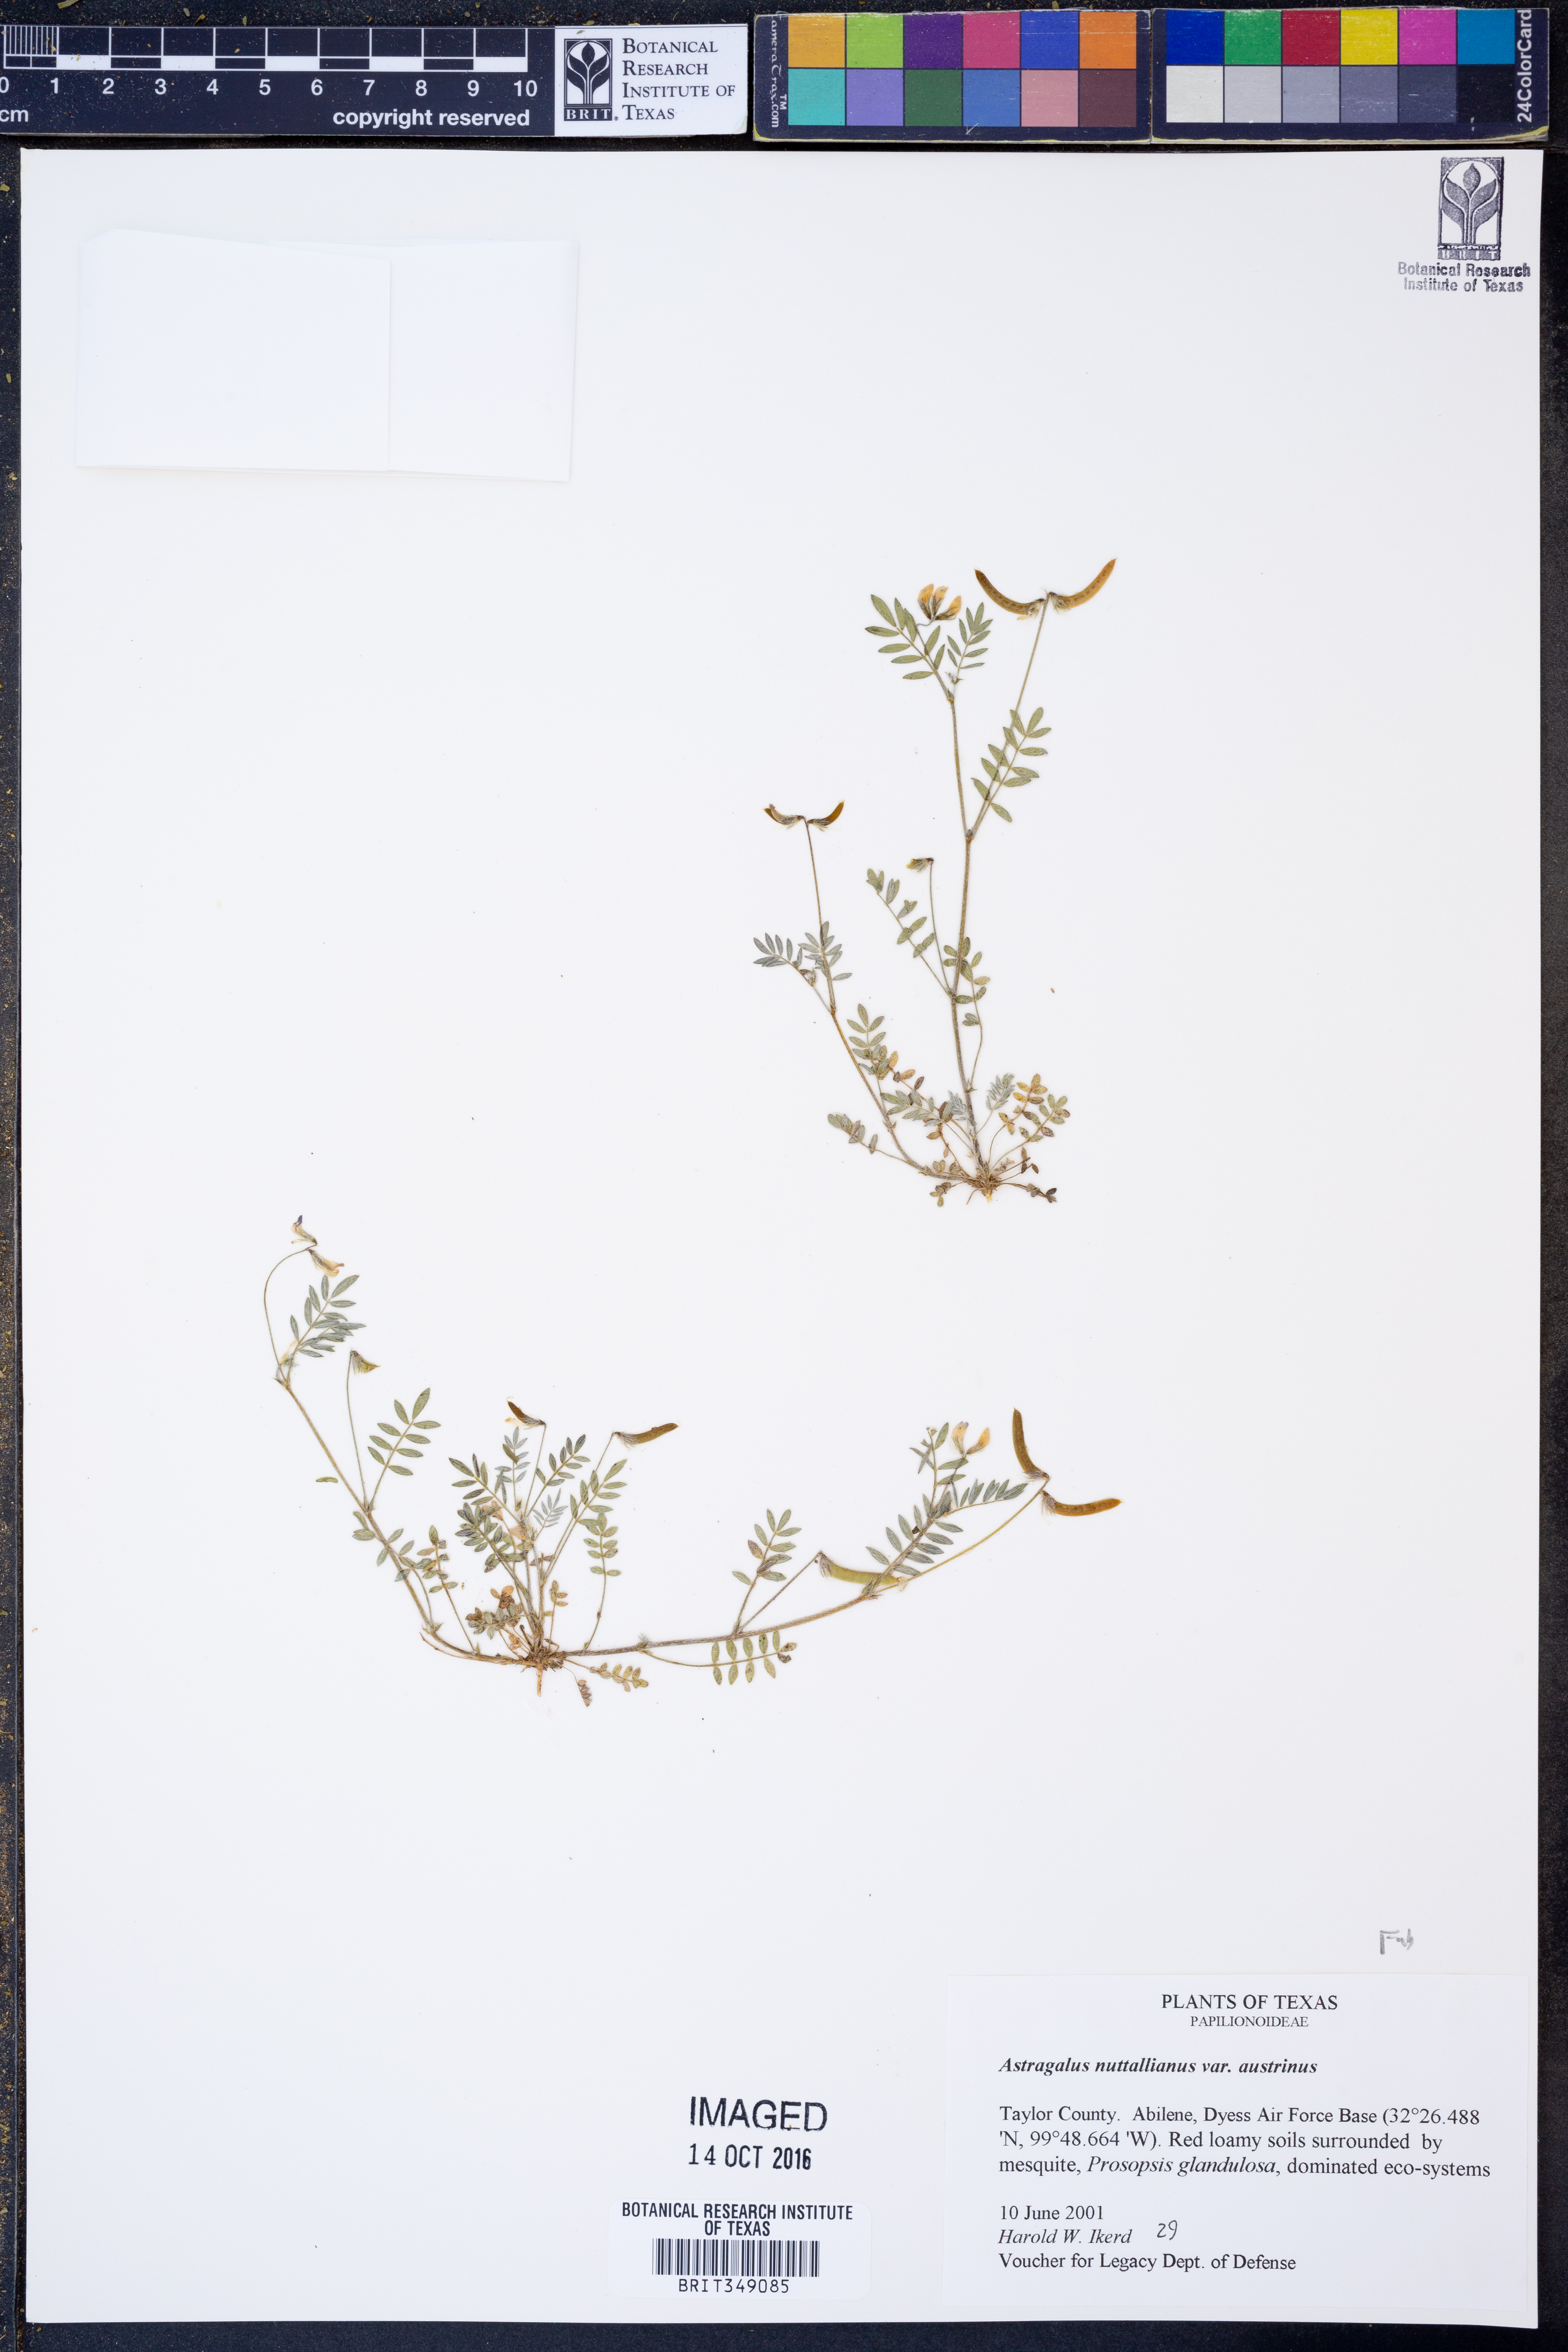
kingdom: Plantae
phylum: Tracheophyta
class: Magnoliopsida
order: Fabales
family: Fabaceae
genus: Astragalus
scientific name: Astragalus nuttallianus
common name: Smallflowered milkvetch
